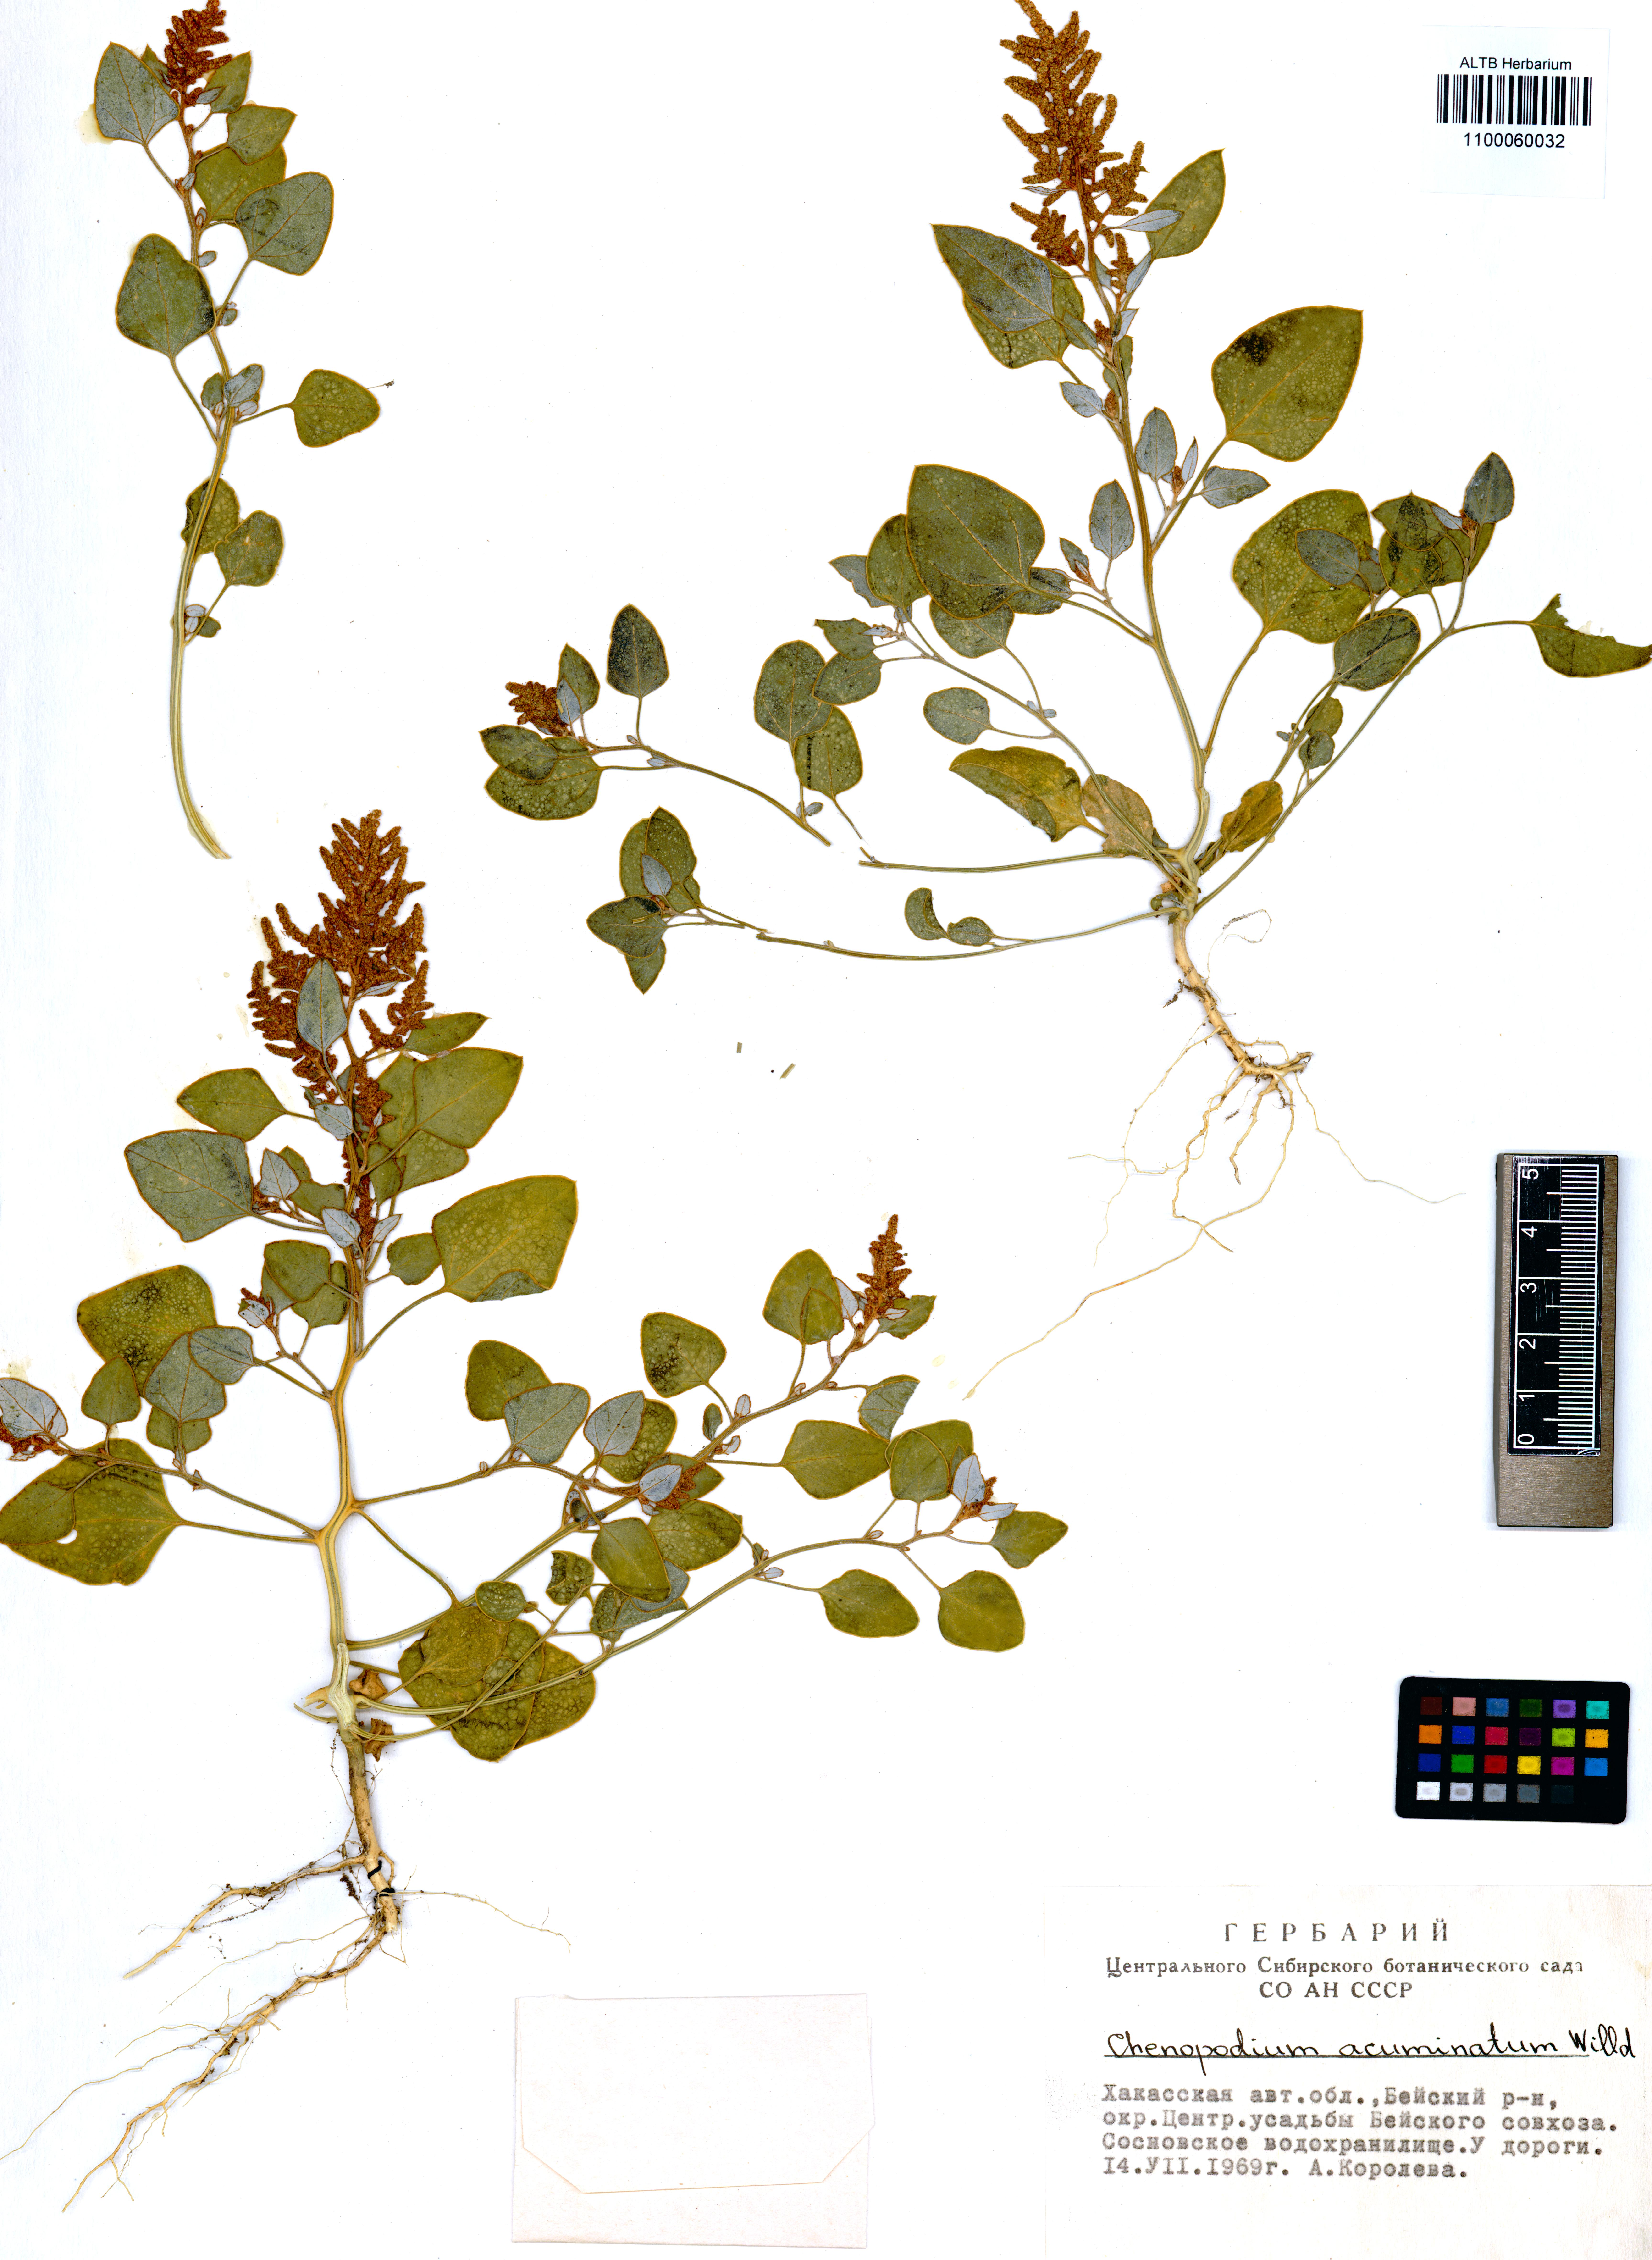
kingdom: Plantae
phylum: Tracheophyta
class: Magnoliopsida
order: Caryophyllales
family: Amaranthaceae
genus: Chenopodium
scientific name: Chenopodium acuminatum
